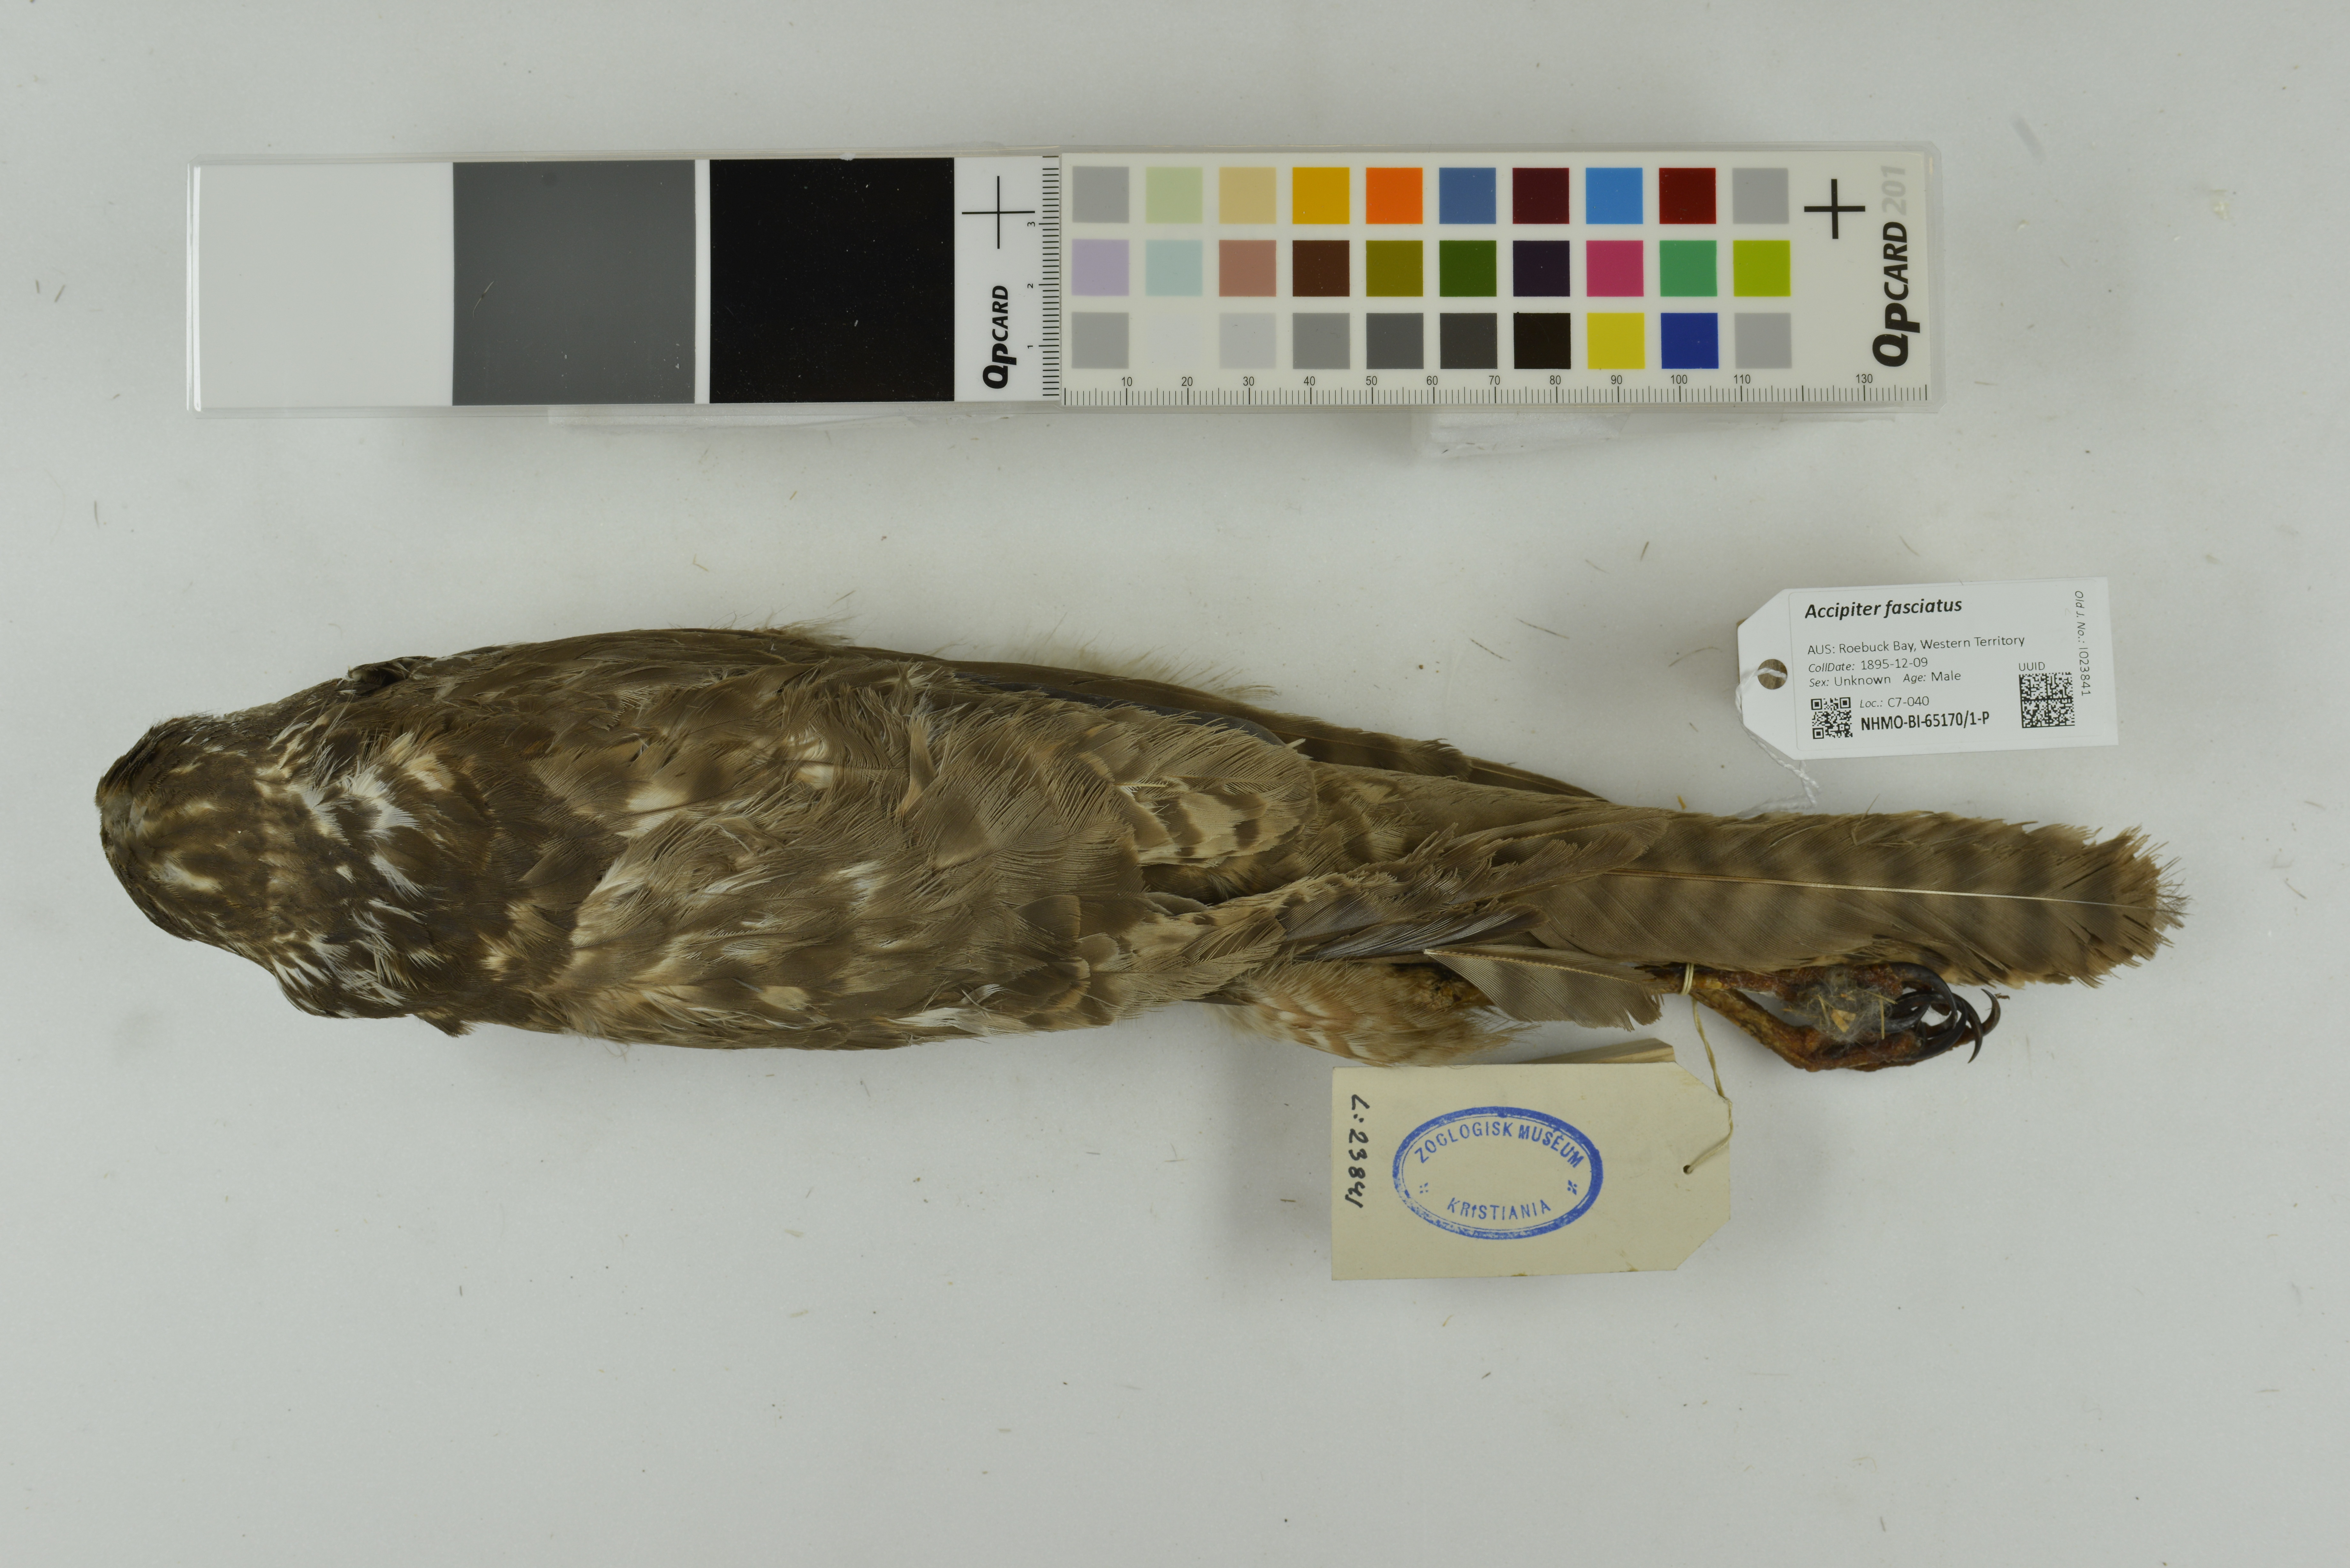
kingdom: Animalia
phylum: Chordata
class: Aves
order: Accipitriformes
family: Accipitridae
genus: Accipiter
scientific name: Accipiter fasciatus
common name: Brown goshawk
